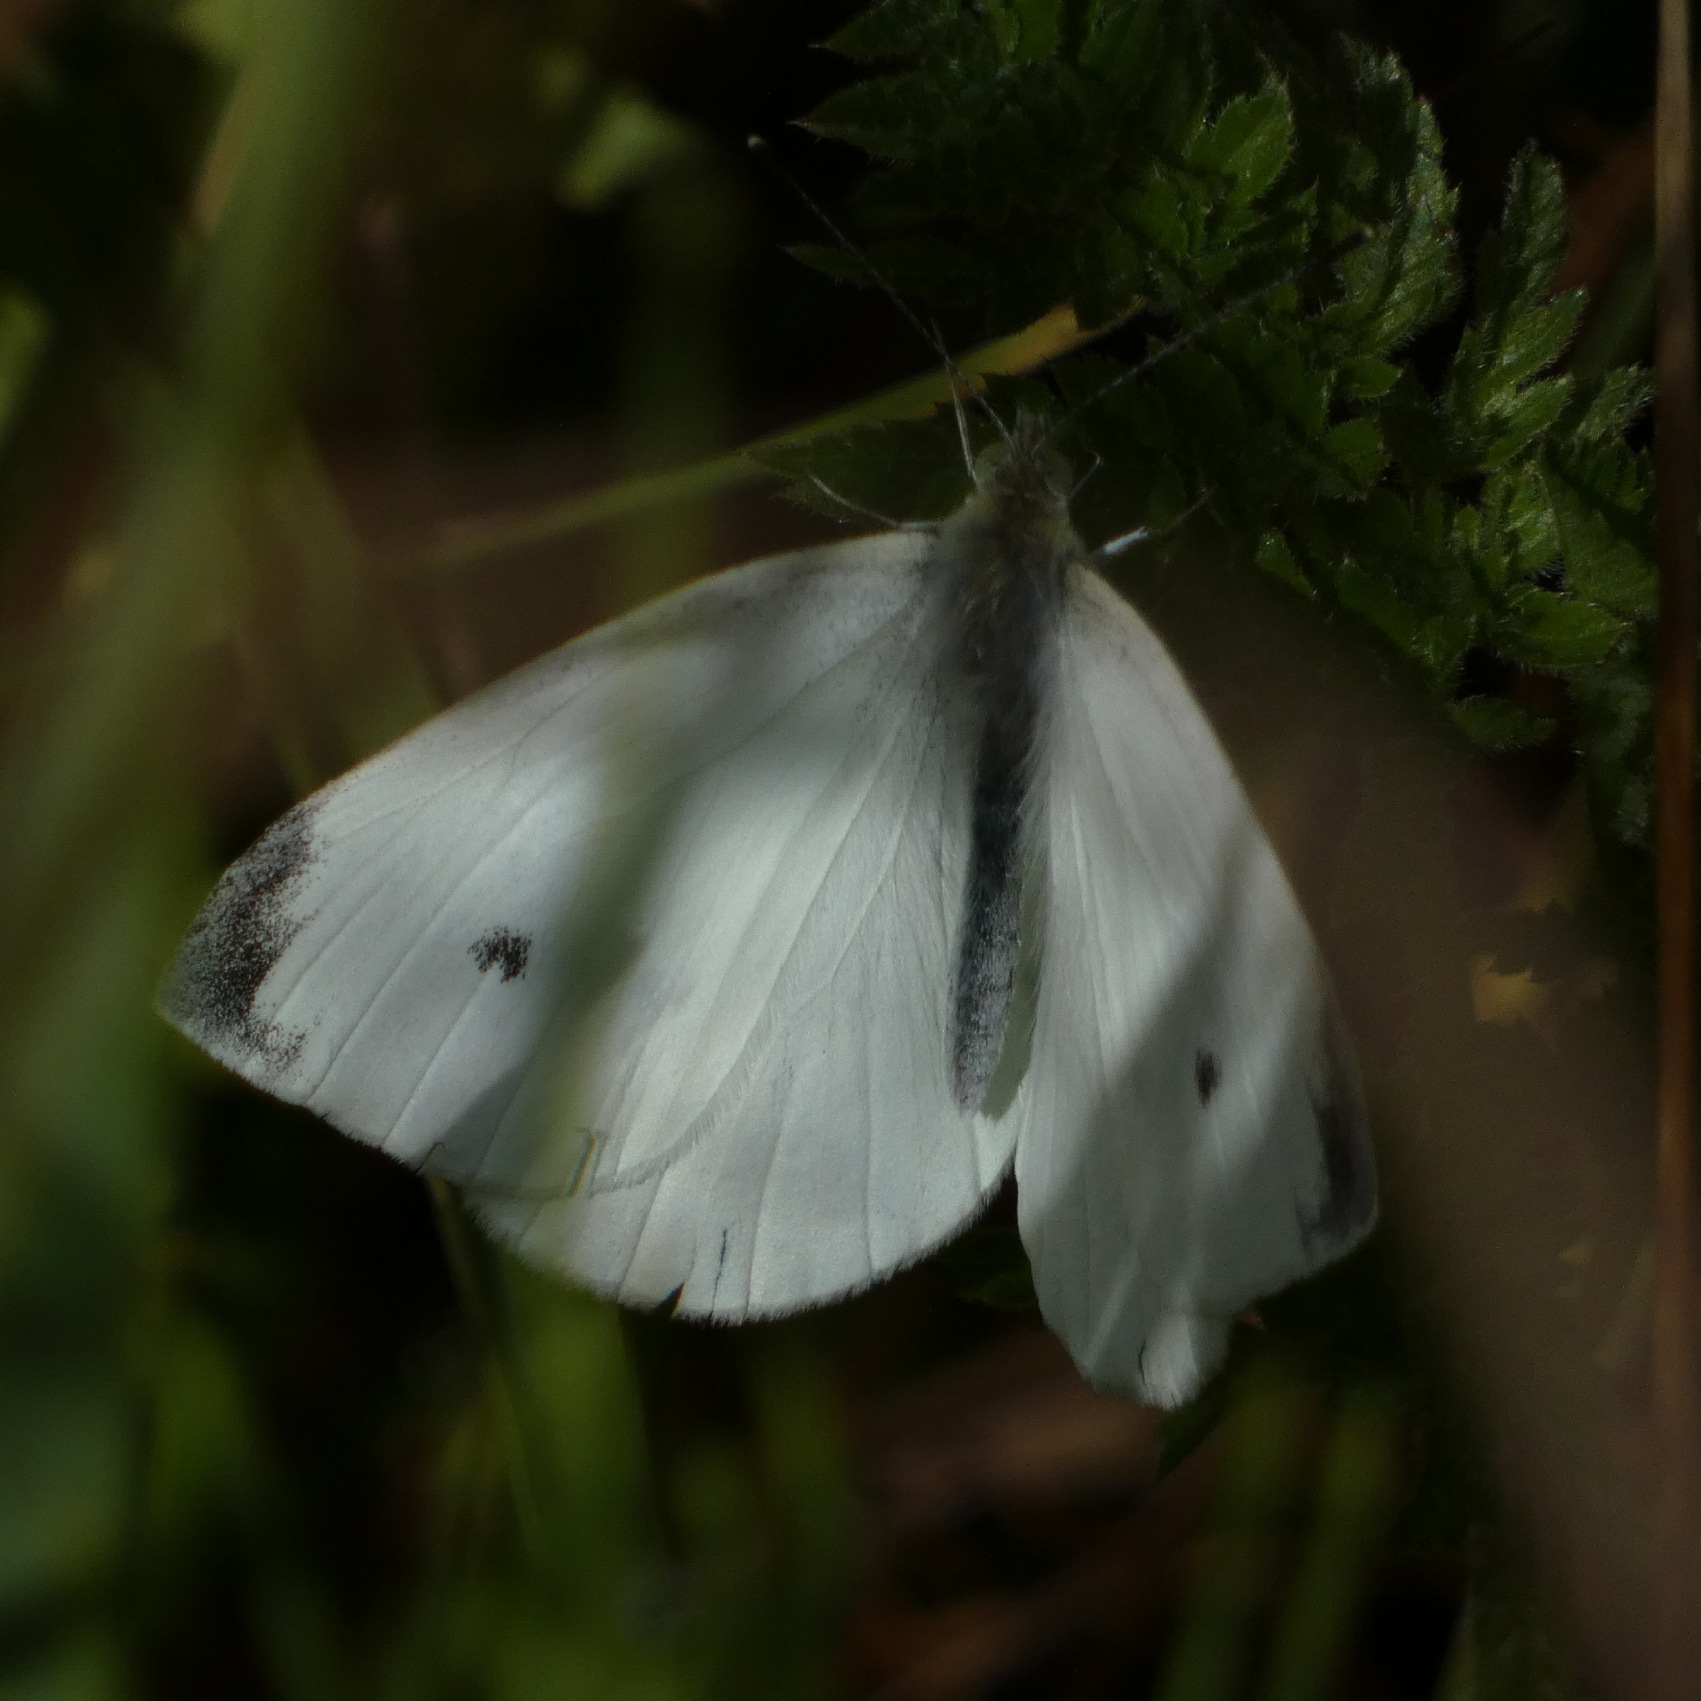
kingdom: Animalia
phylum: Arthropoda
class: Insecta
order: Lepidoptera
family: Pieridae
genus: Pieris
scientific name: Pieris rapae
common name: Lille kålsommerfugl
